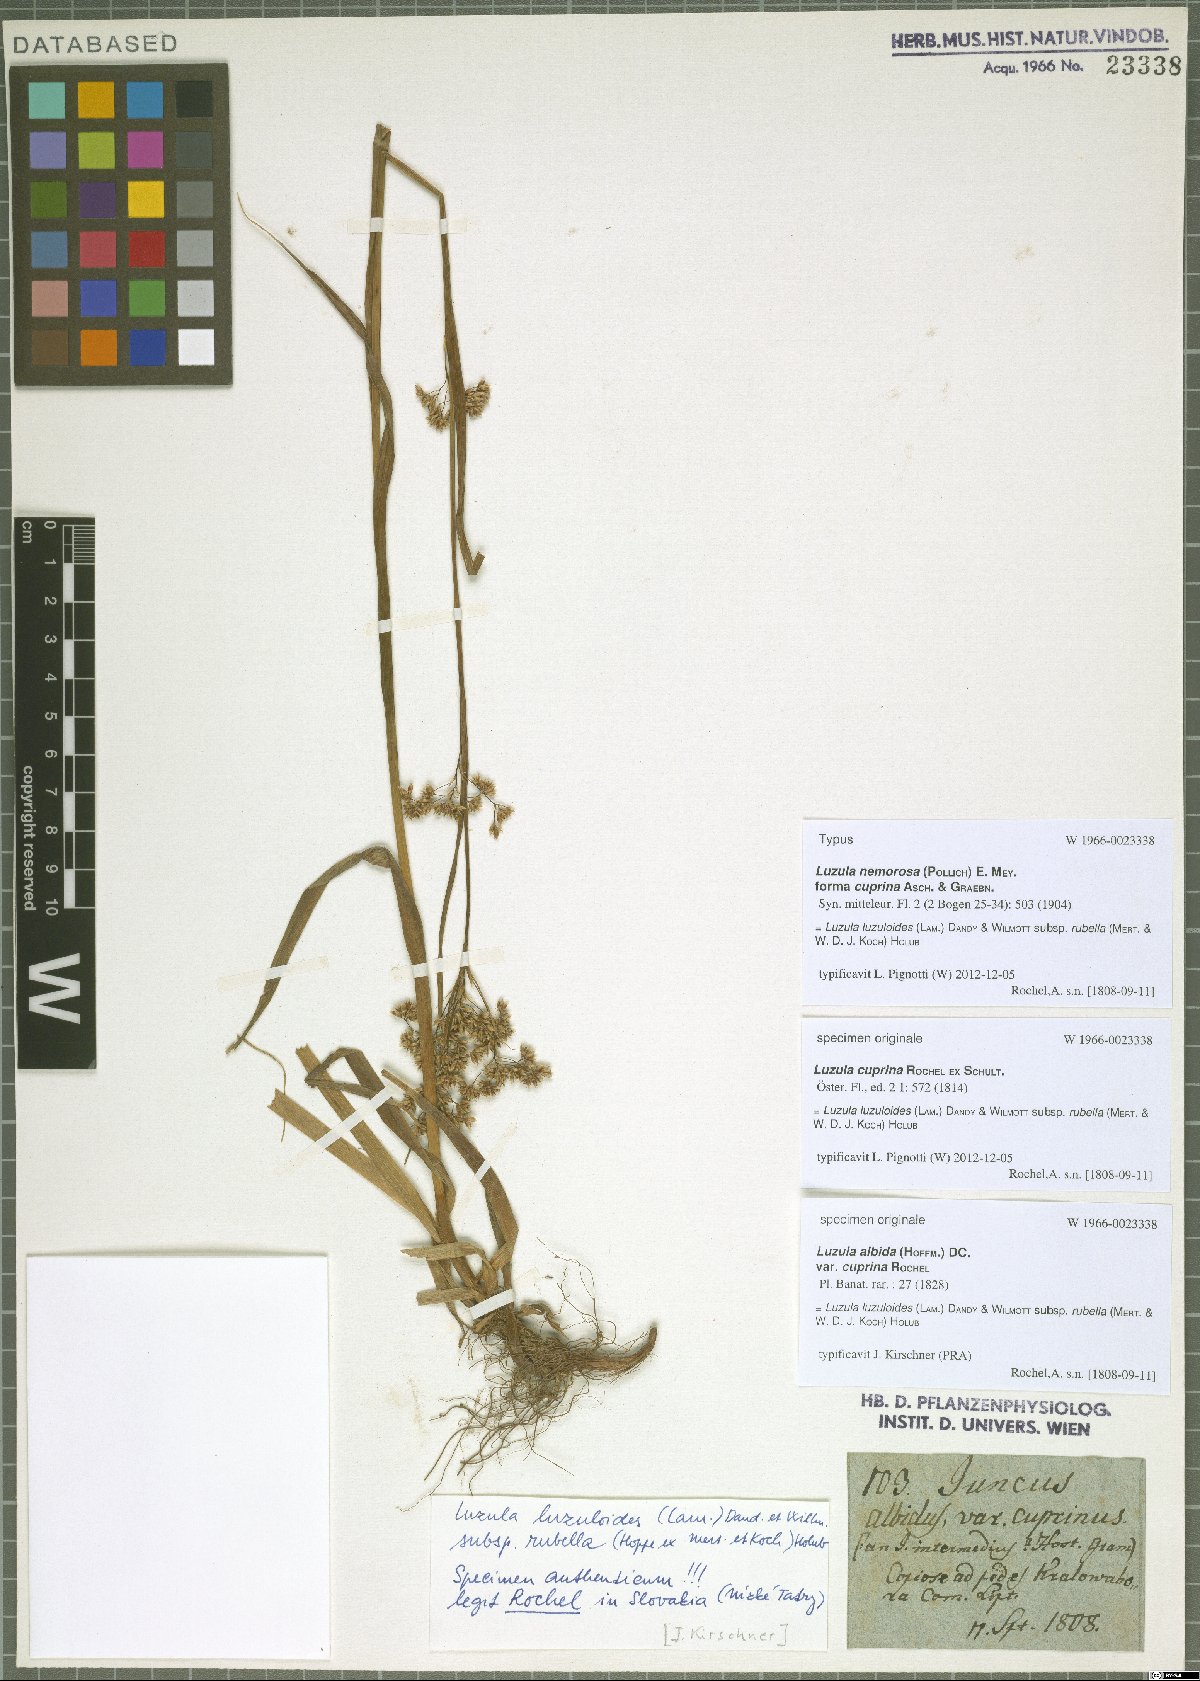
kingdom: Plantae
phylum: Tracheophyta
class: Liliopsida
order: Poales
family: Juncaceae
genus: Luzula
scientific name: Luzula luzuloides
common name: White wood-rush
